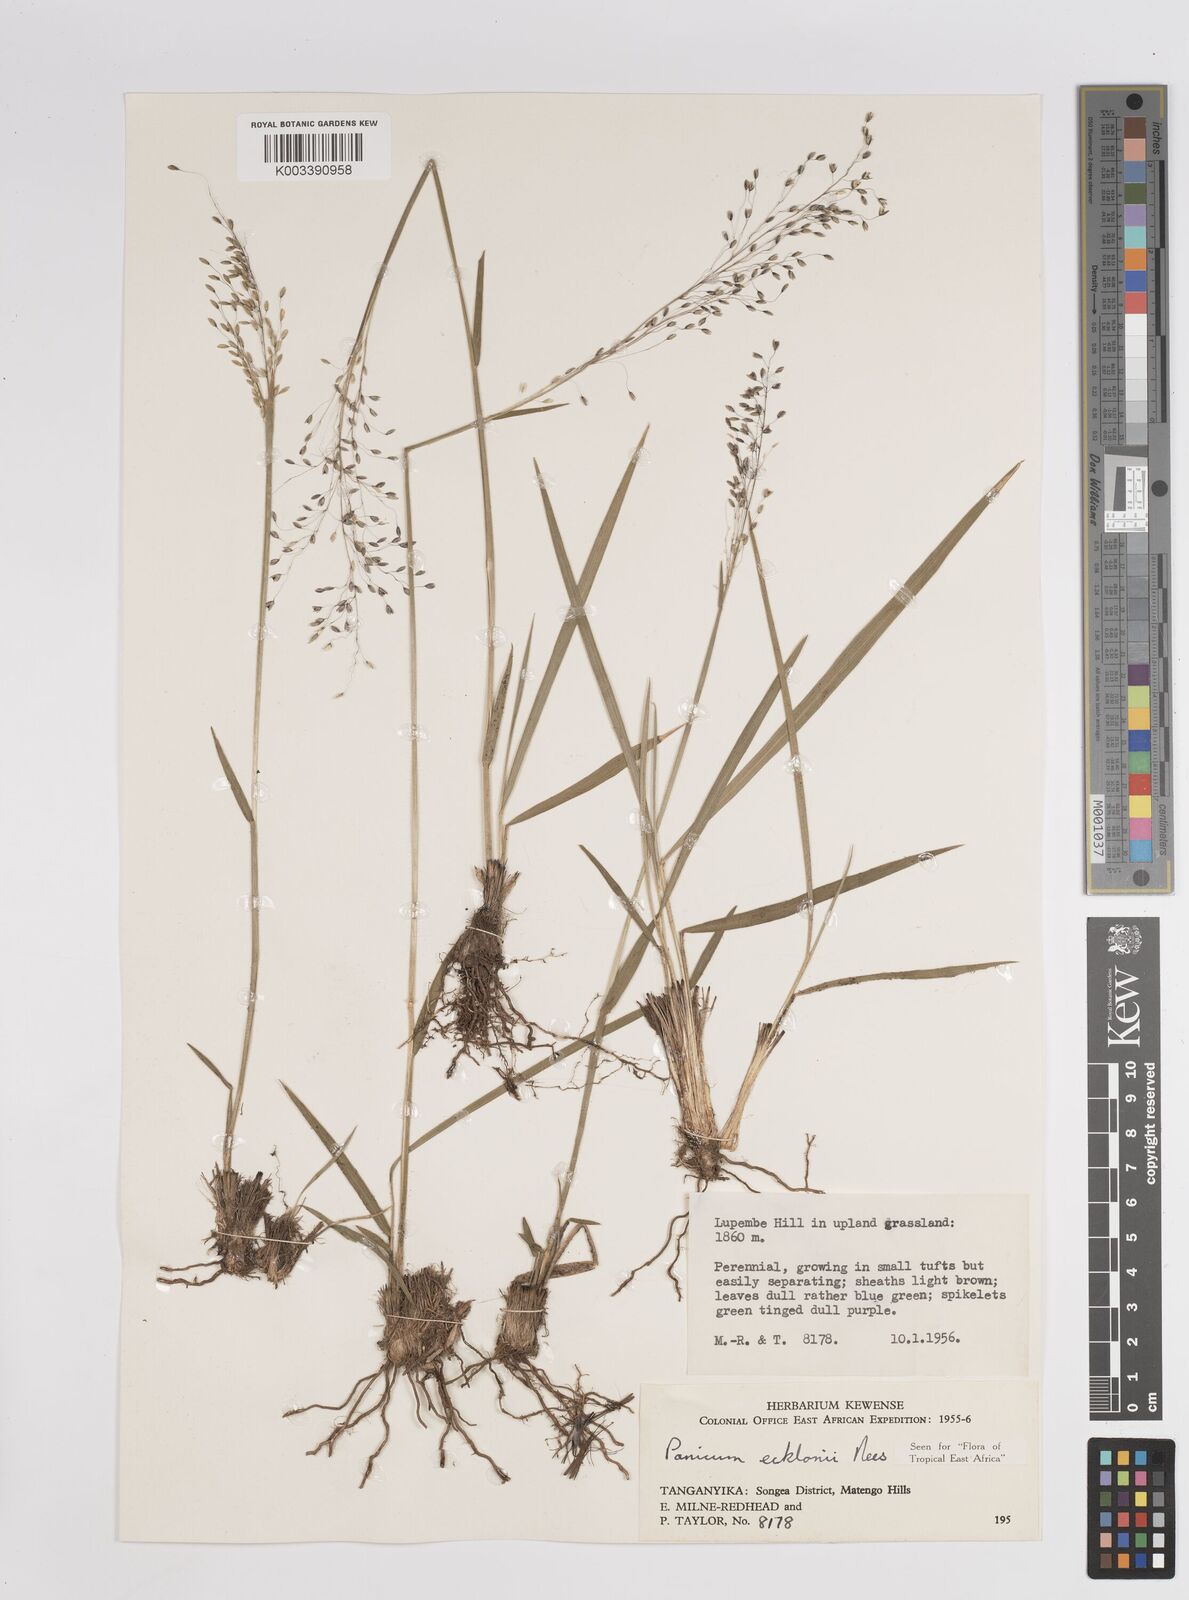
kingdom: Plantae
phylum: Tracheophyta
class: Liliopsida
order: Poales
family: Poaceae
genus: Adenochloa
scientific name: Adenochloa ecklonii
